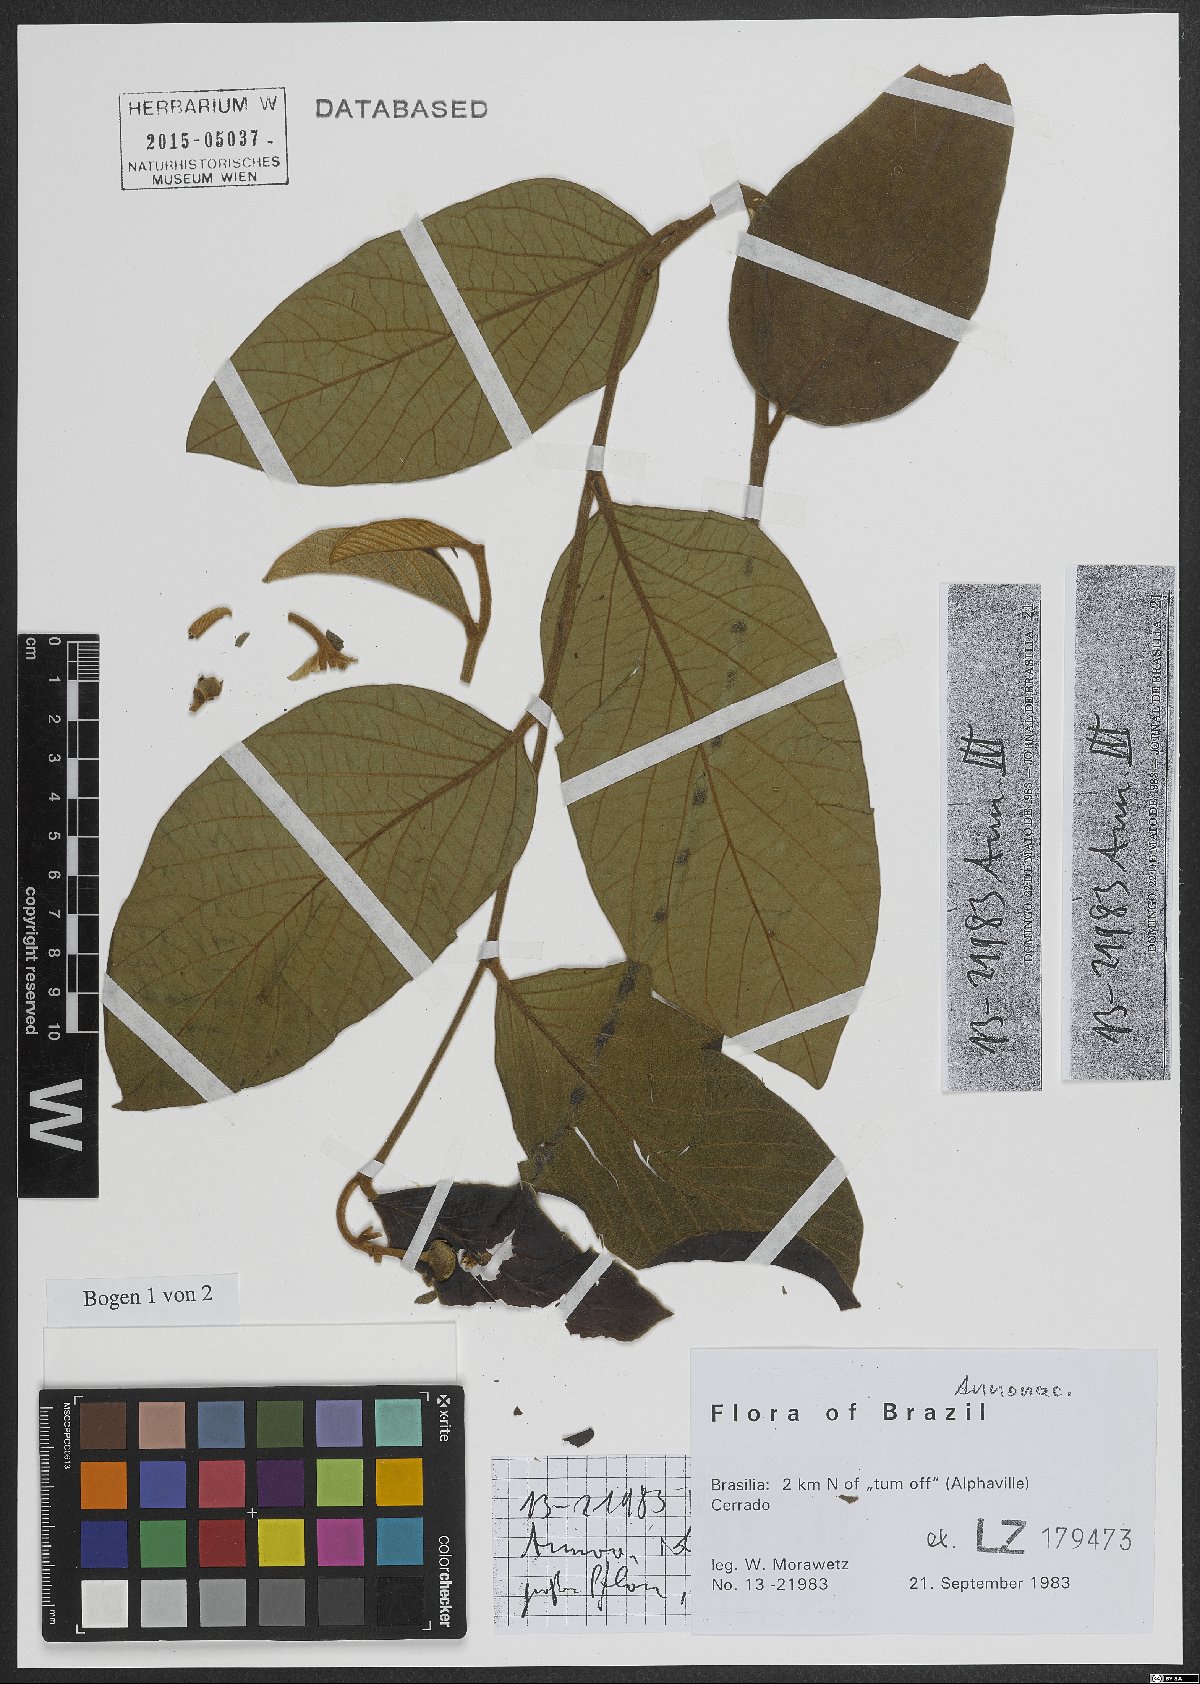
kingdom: Plantae
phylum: Tracheophyta
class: Magnoliopsida
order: Magnoliales
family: Annonaceae
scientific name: Annonaceae
